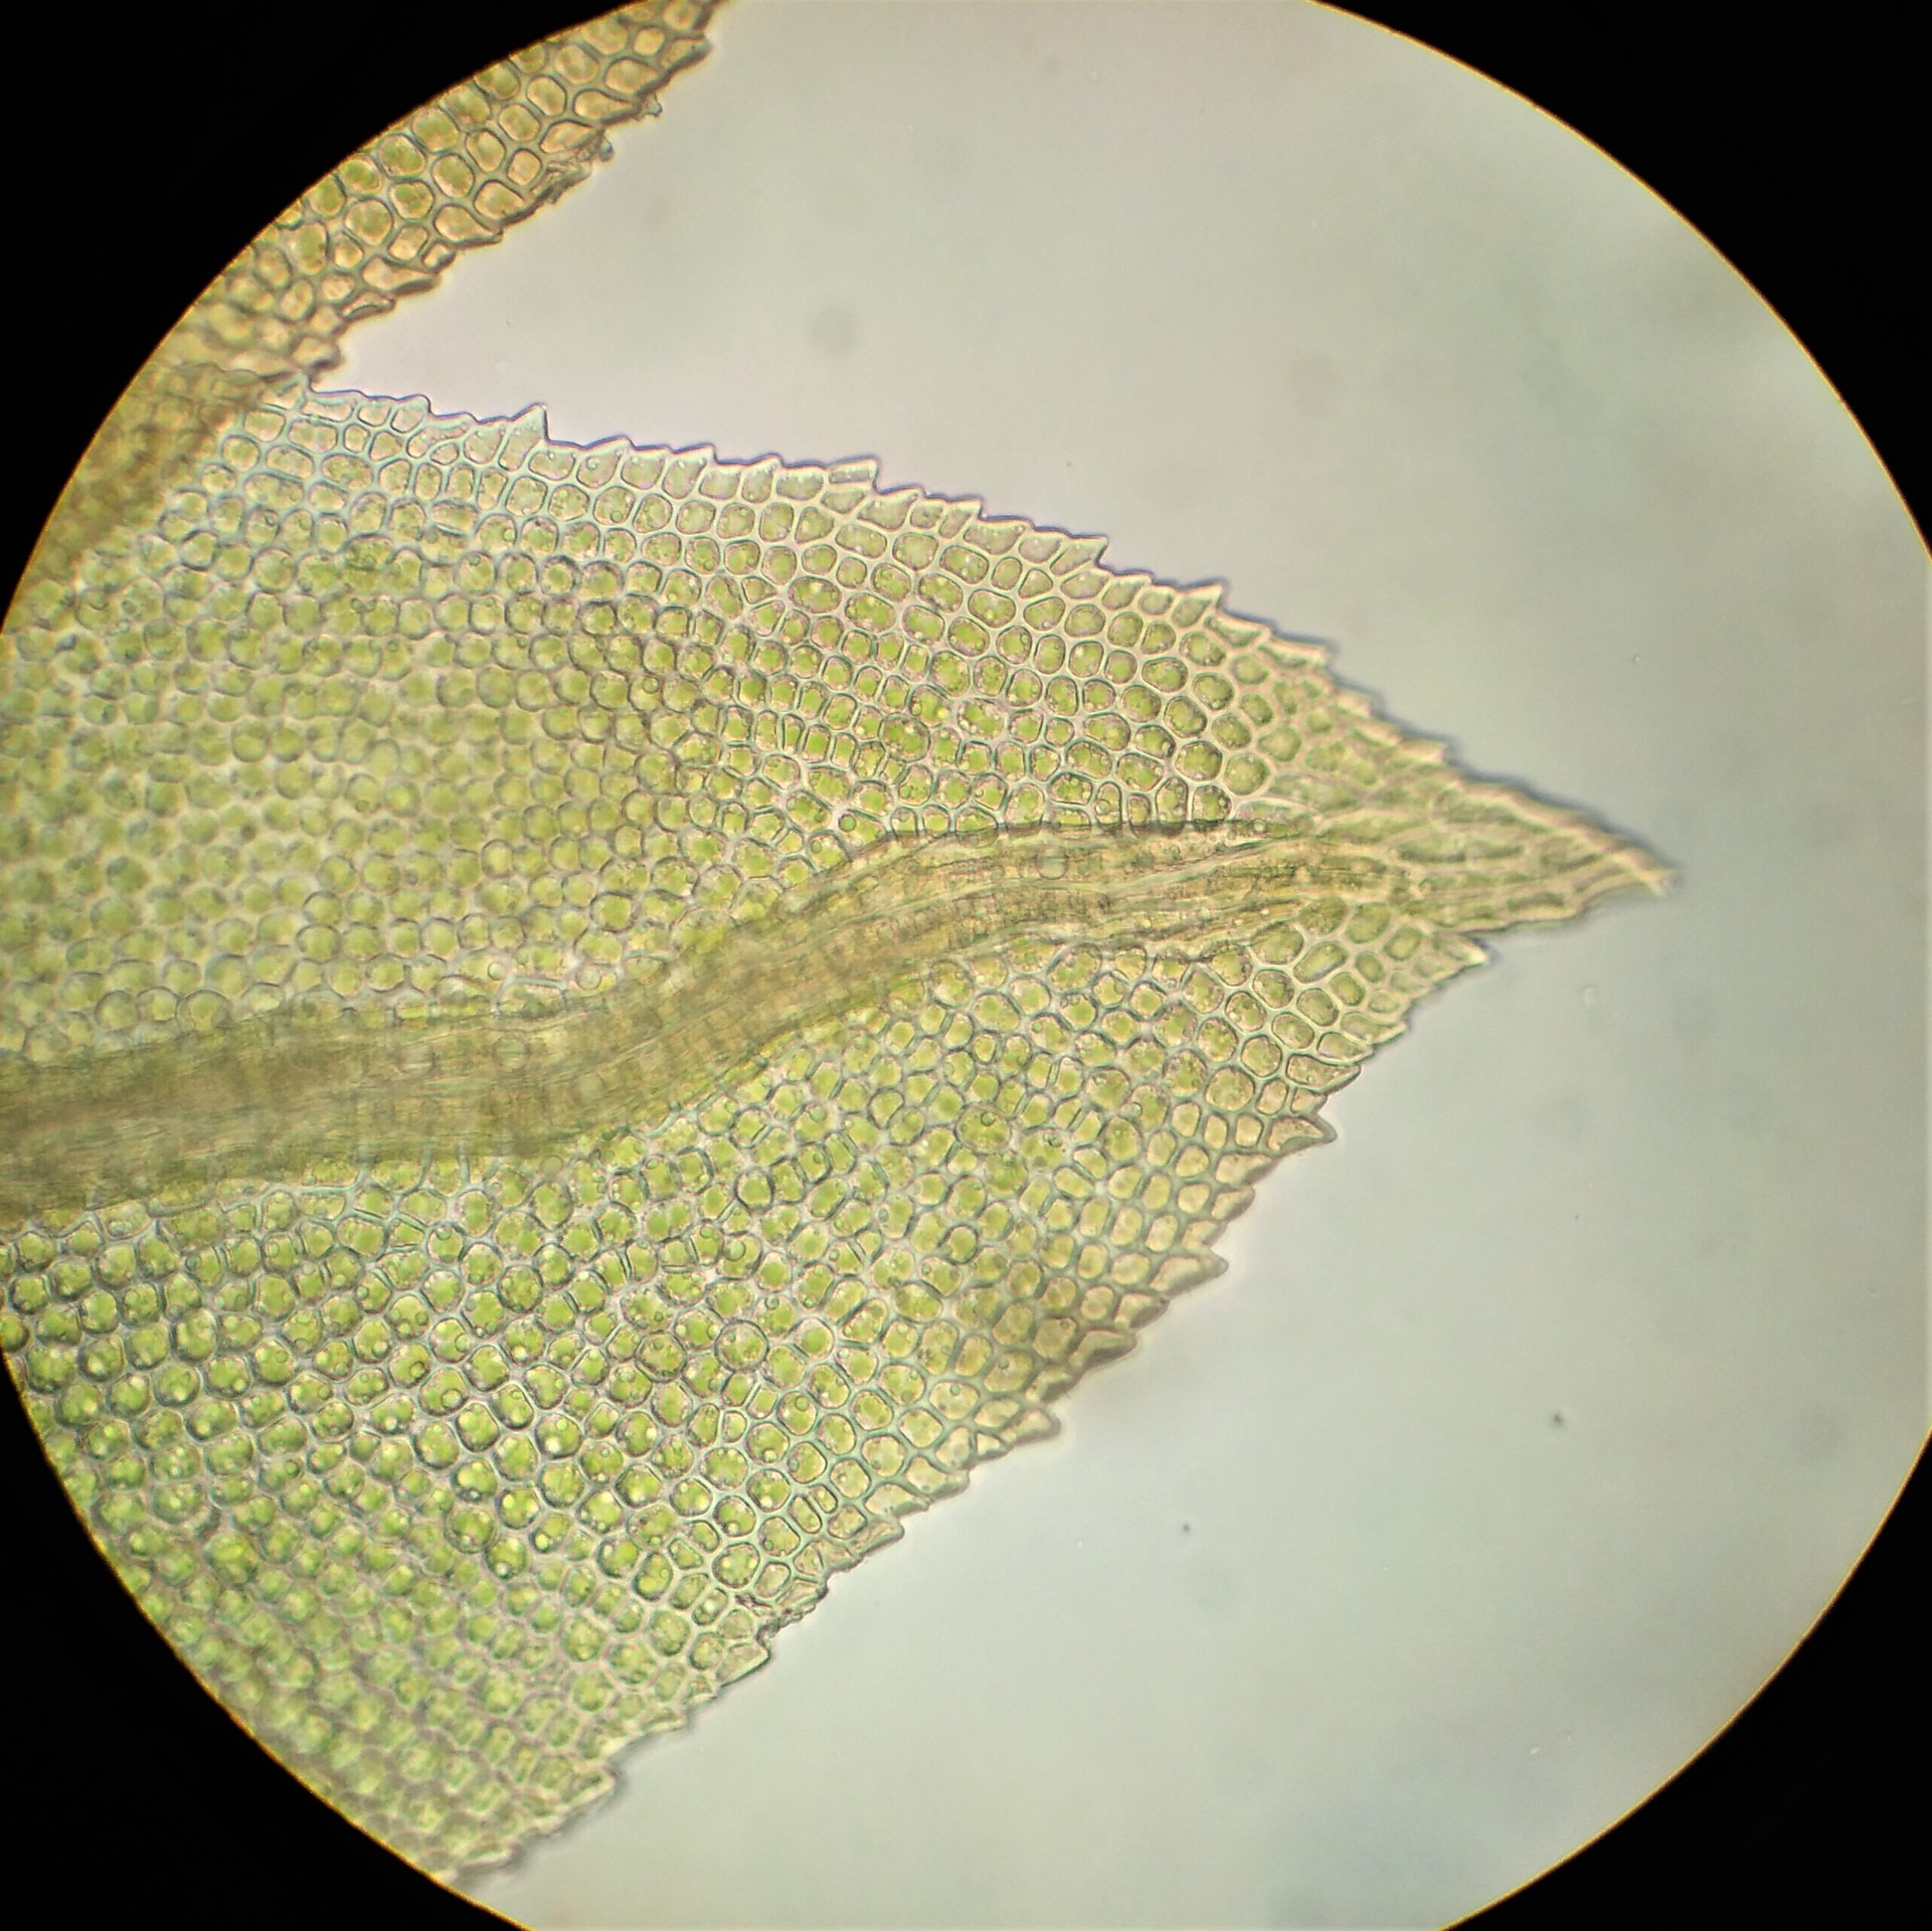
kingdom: Plantae
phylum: Bryophyta
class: Bryopsida
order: Dicranales
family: Fissidentaceae
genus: Fissidens
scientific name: Fissidens dubius
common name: Tør rademos
